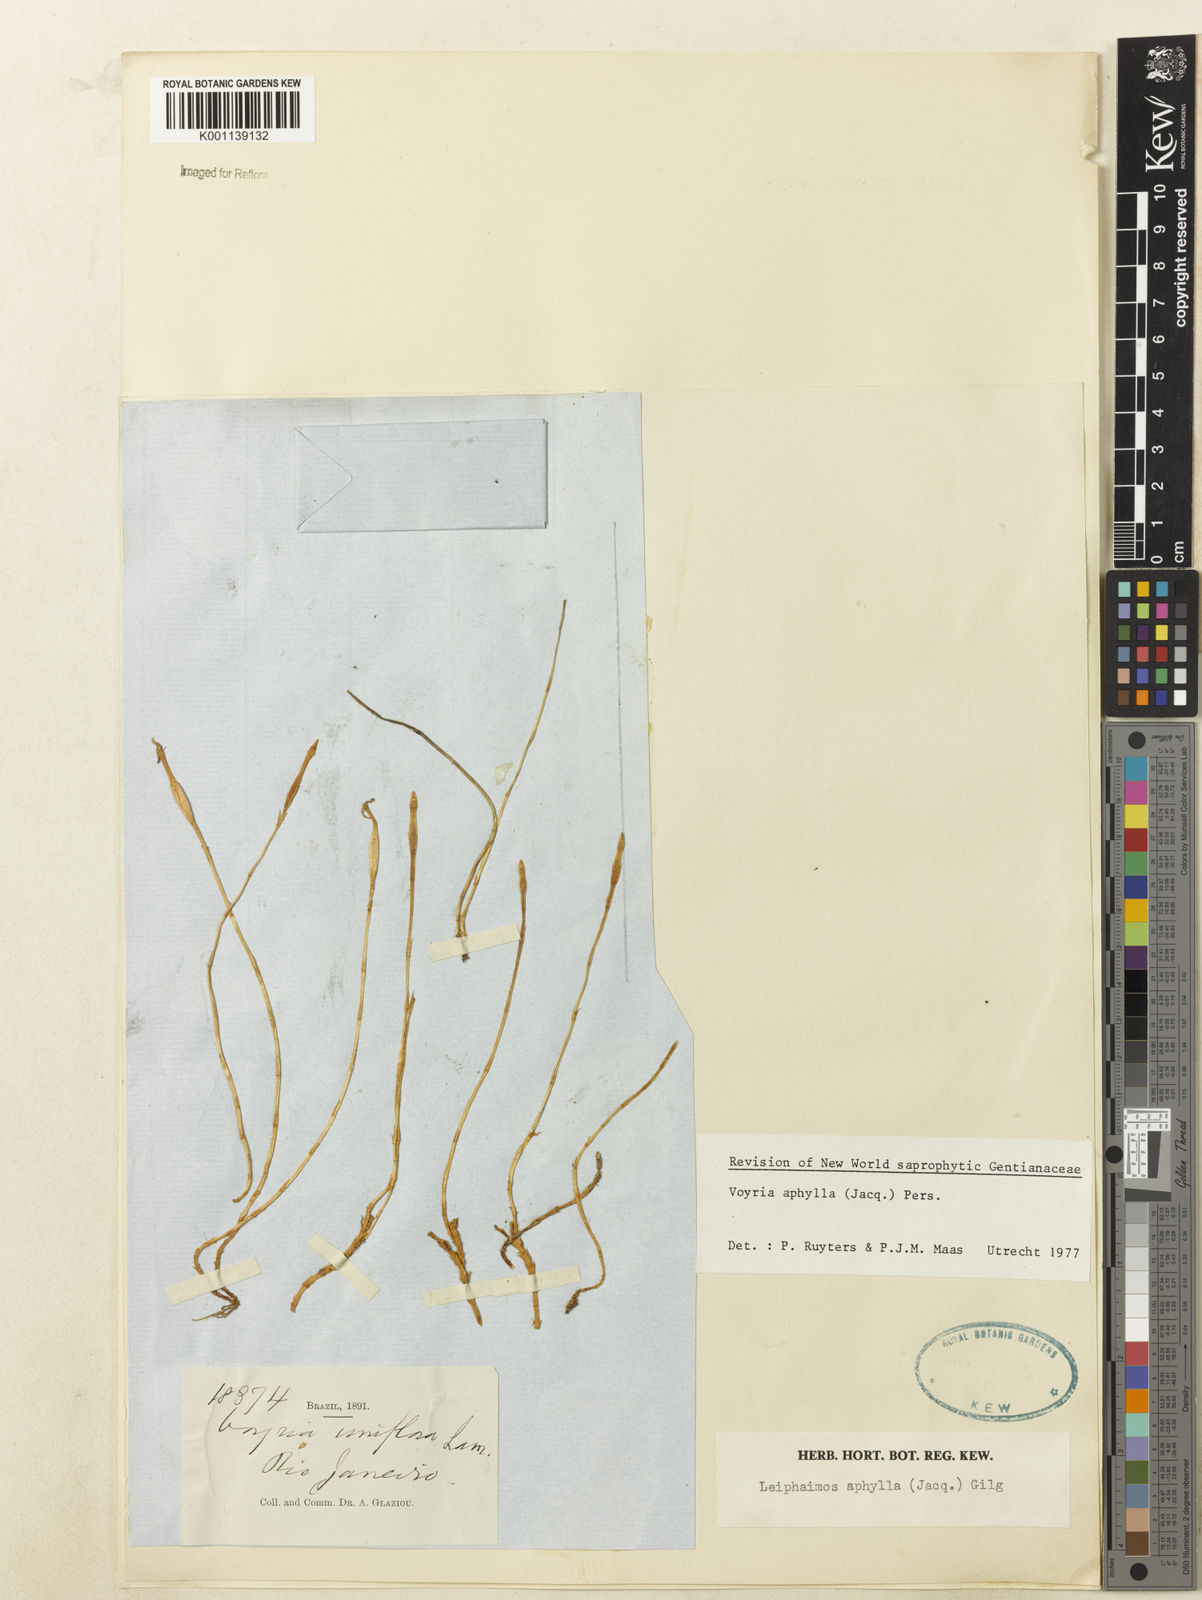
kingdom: Plantae
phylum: Tracheophyta
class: Magnoliopsida
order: Gentianales
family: Gentianaceae
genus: Voyria
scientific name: Voyria aphylla
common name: Leafless ghost plant
